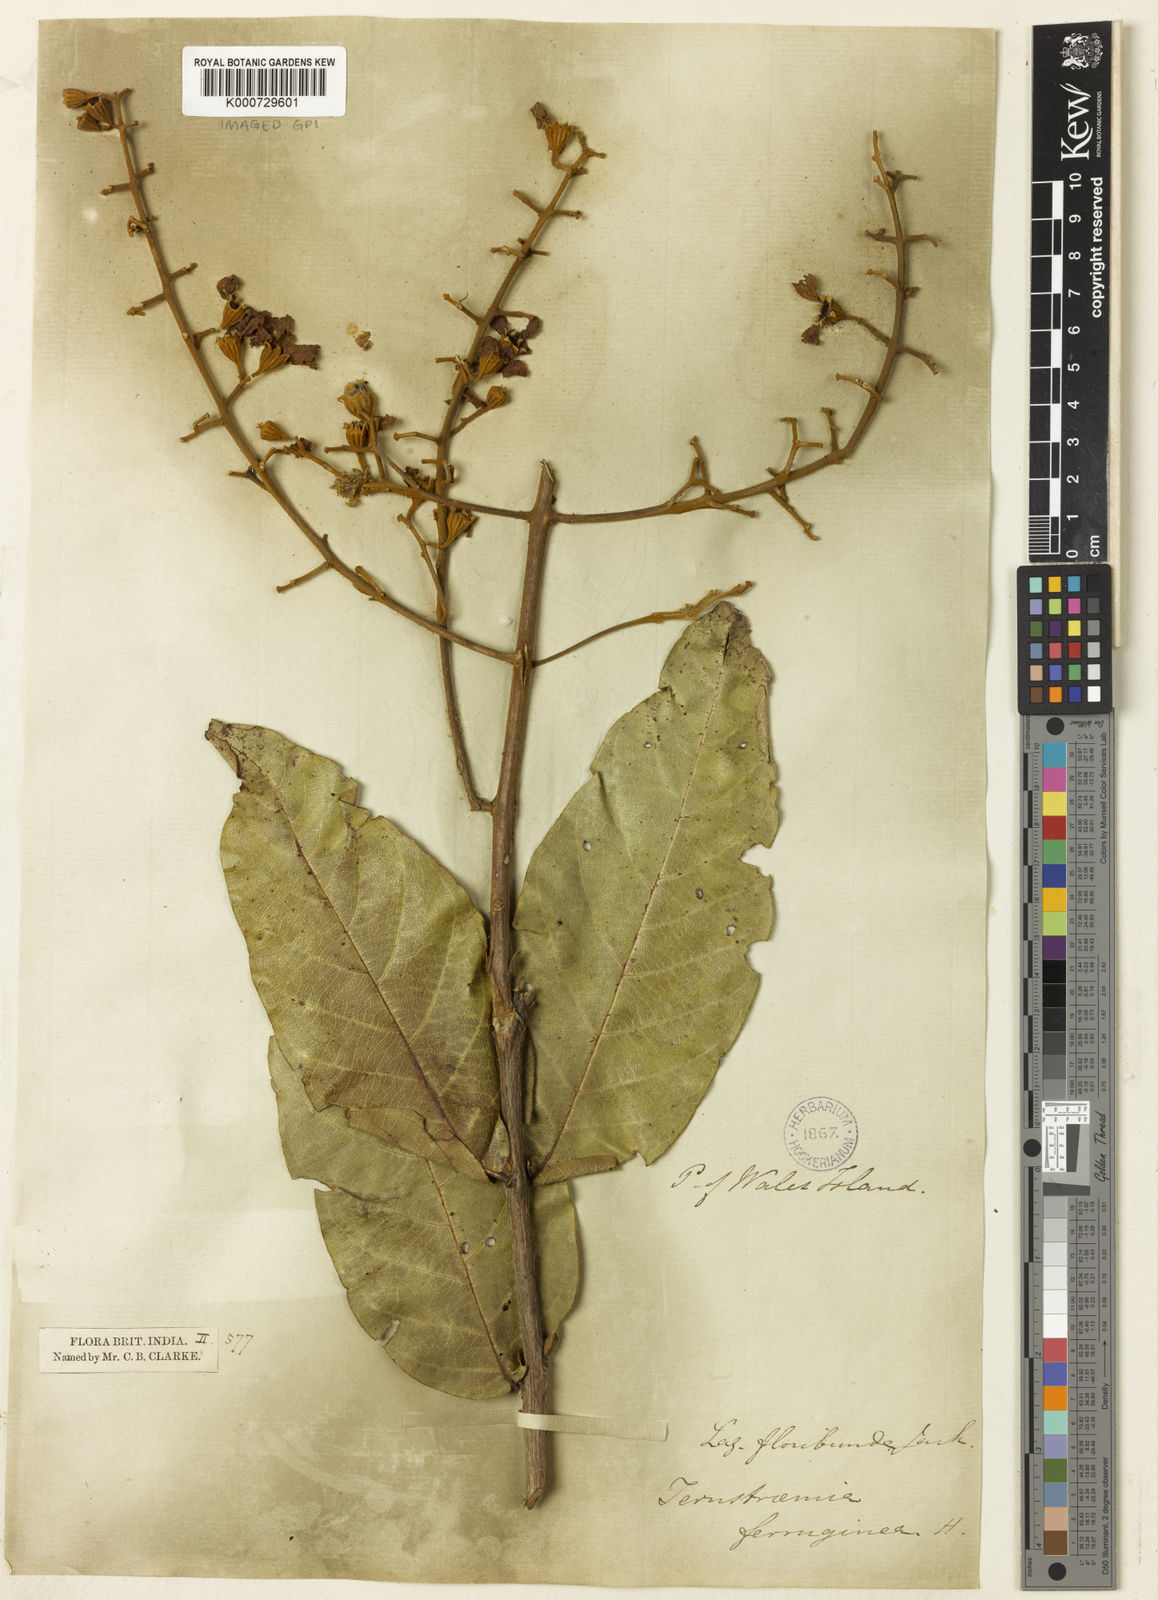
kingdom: Plantae
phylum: Tracheophyta
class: Magnoliopsida
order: Myrtales
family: Lythraceae
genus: Lagerstroemia
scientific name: Lagerstroemia floribunda
